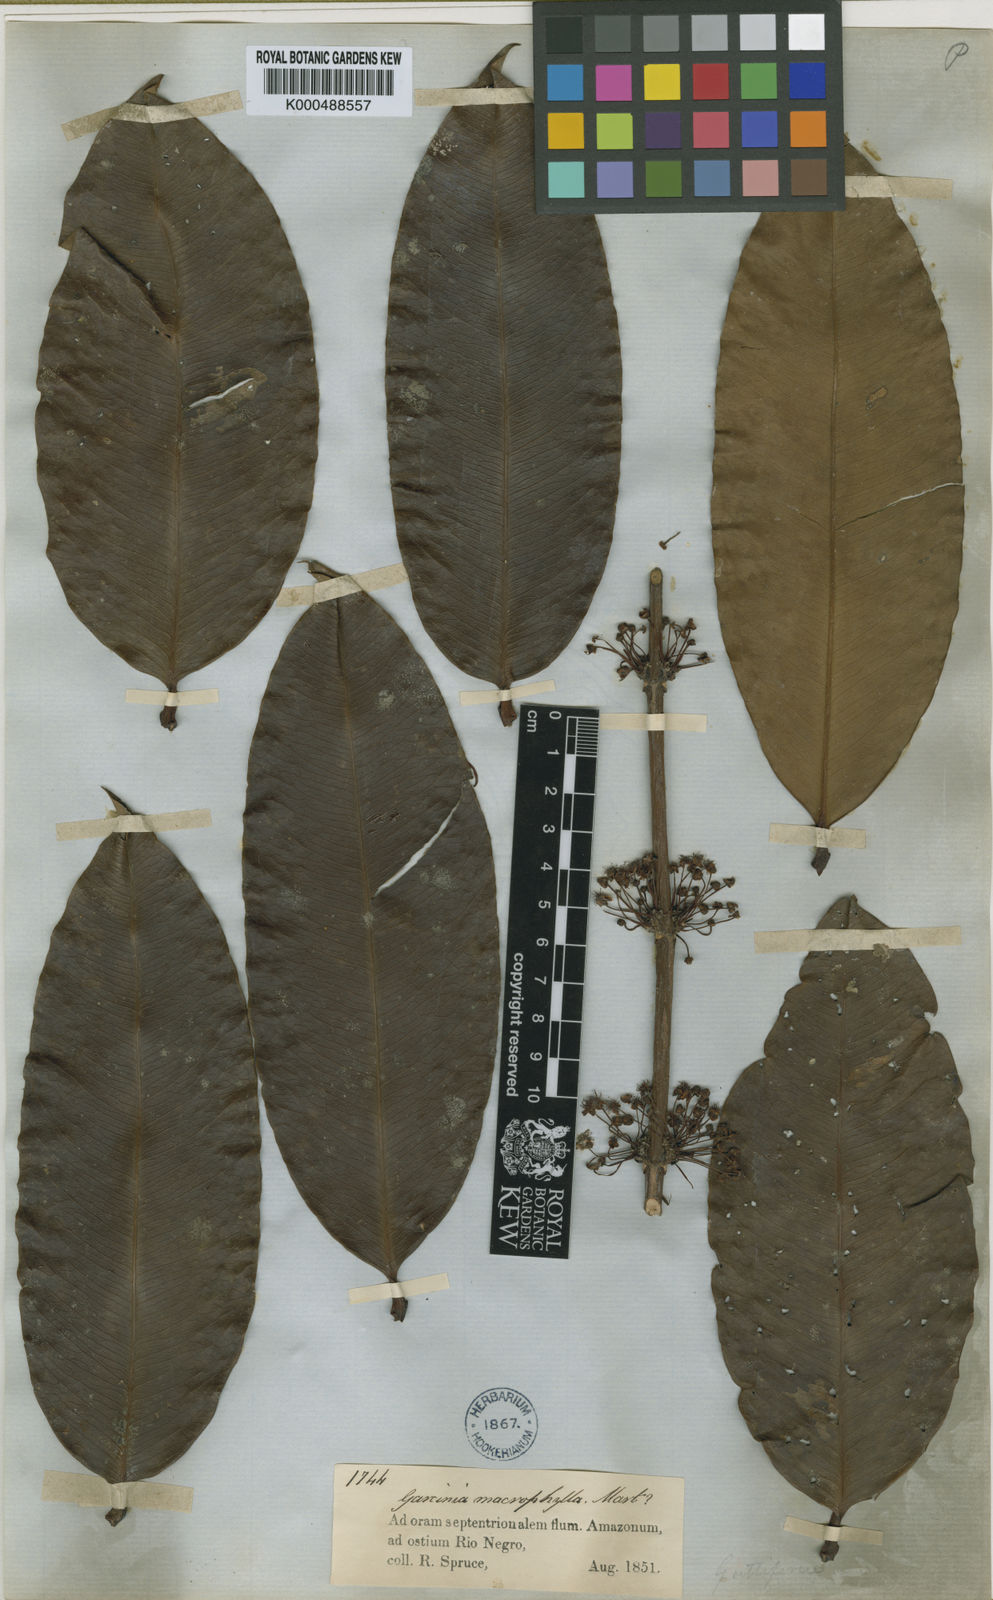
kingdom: Plantae
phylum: Tracheophyta
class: Magnoliopsida
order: Malpighiales
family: Clusiaceae
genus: Garcinia
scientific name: Garcinia
